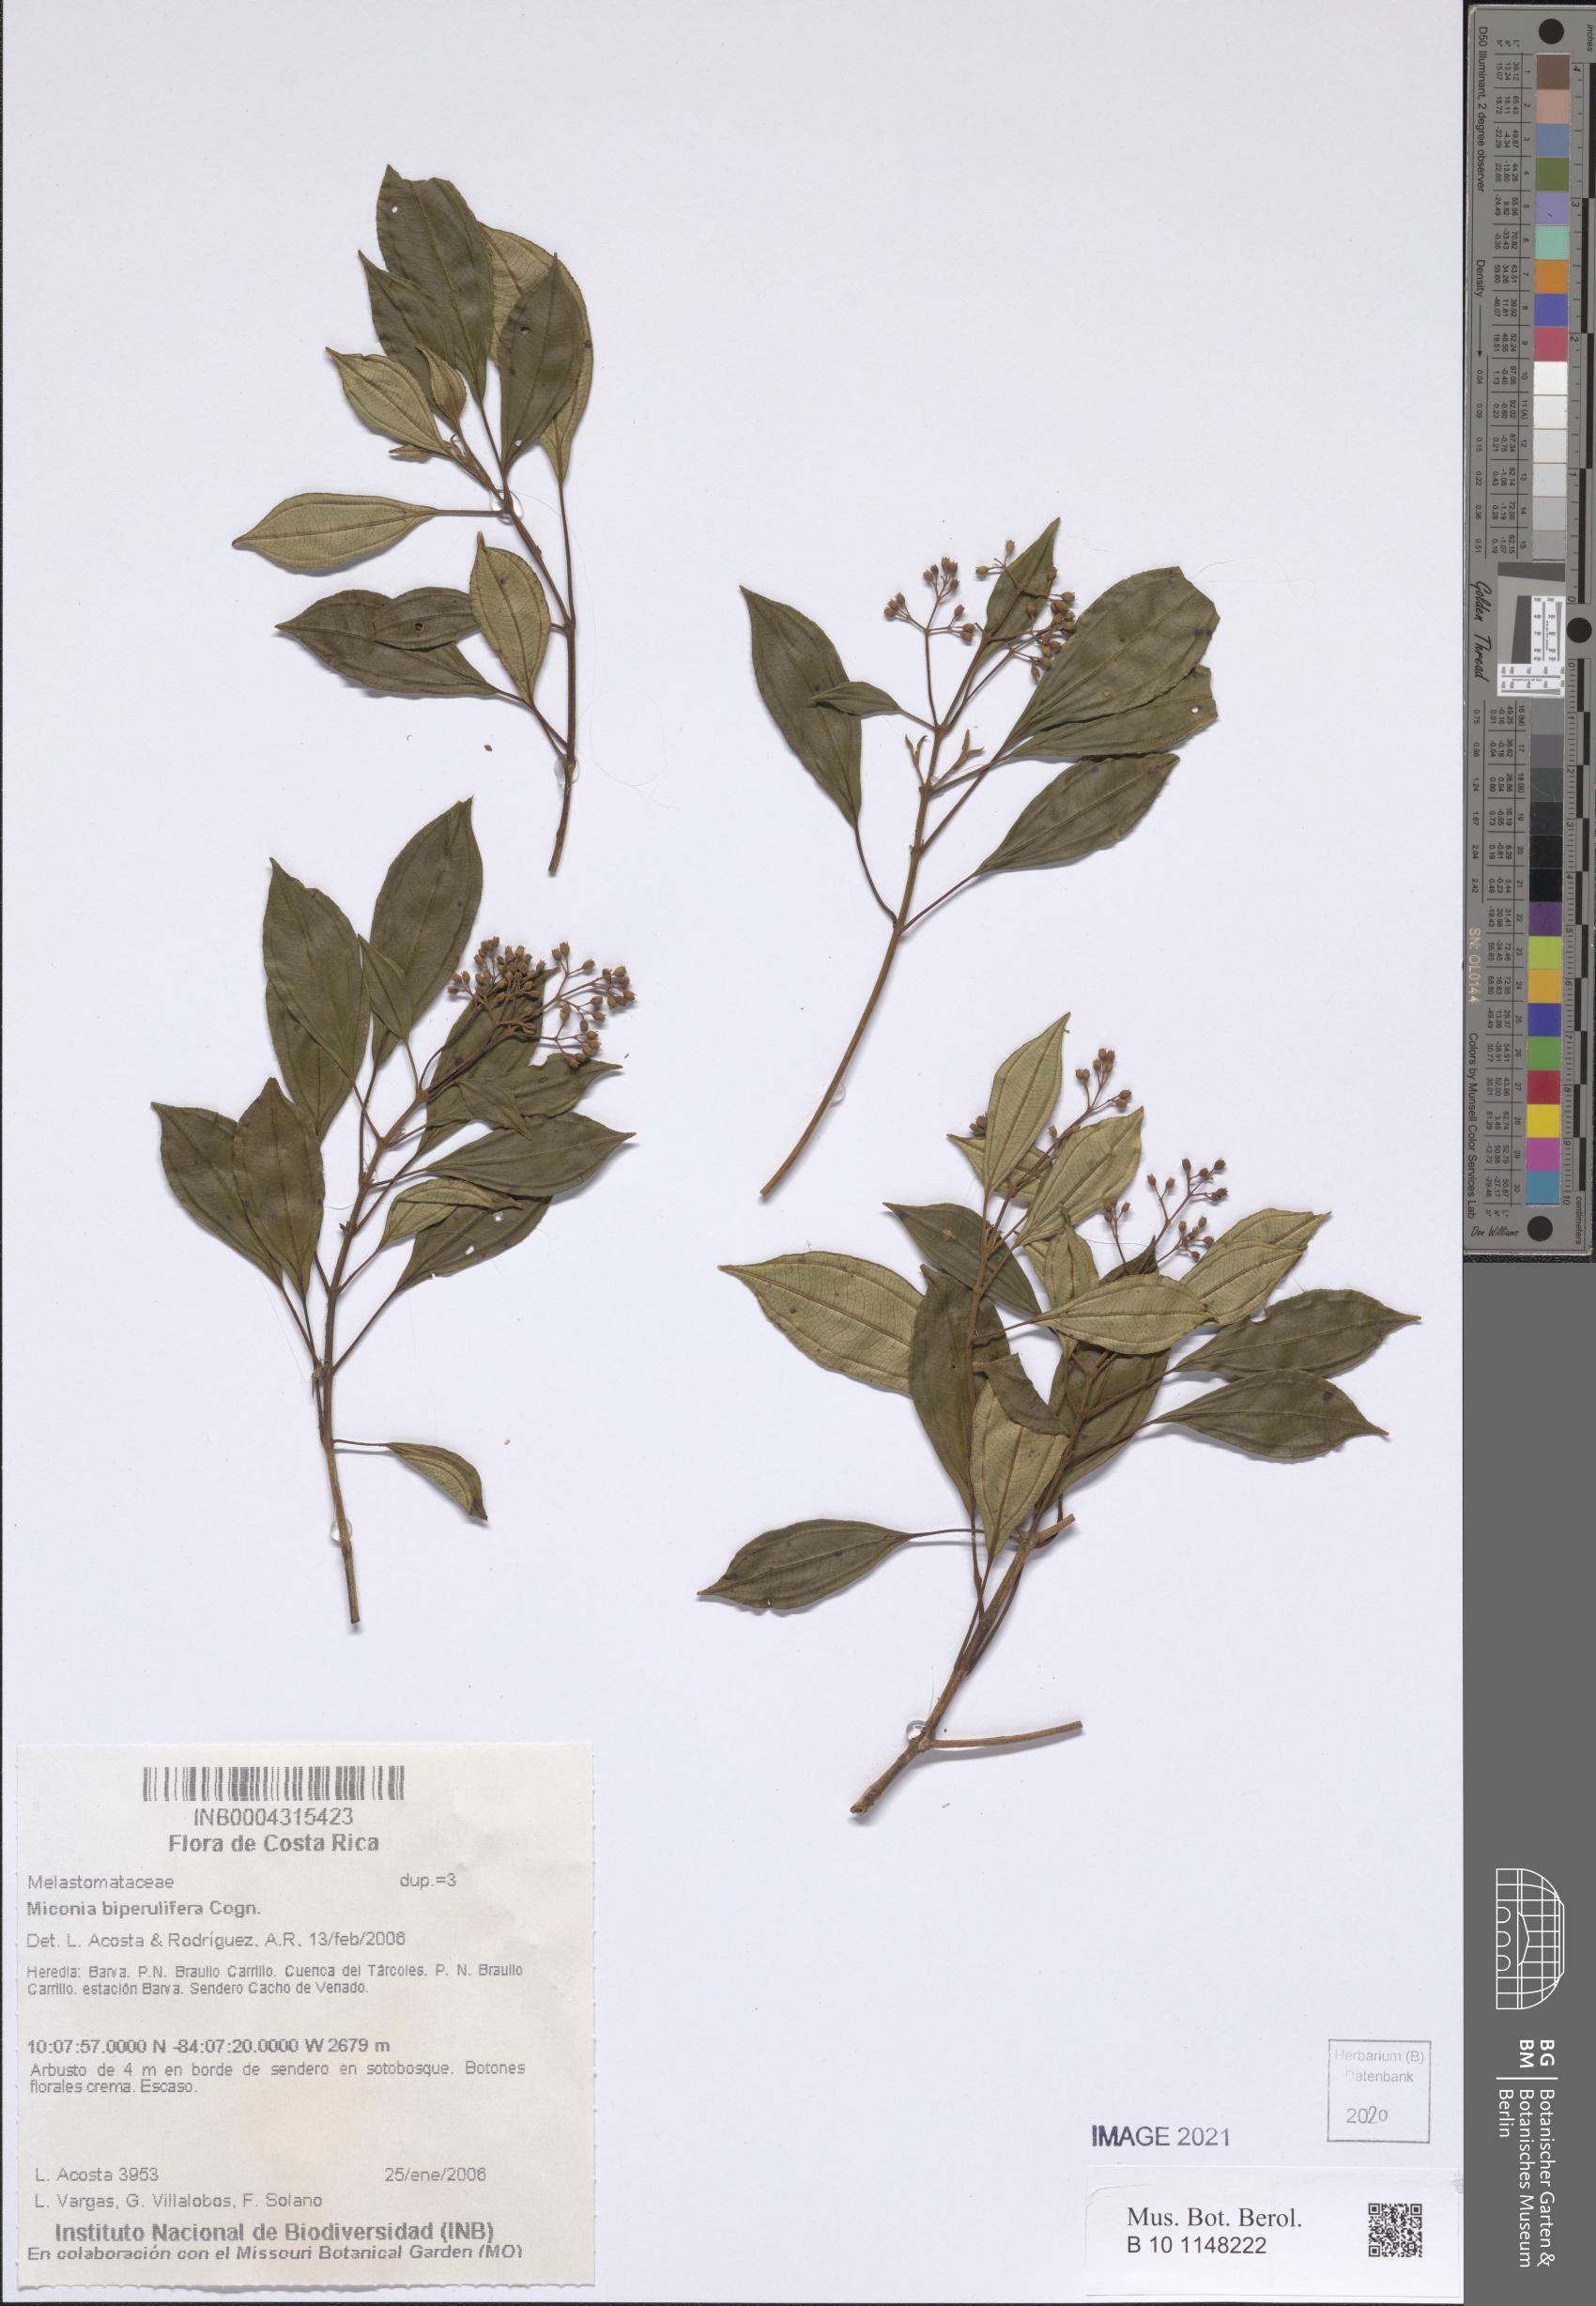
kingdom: Plantae
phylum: Tracheophyta
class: Magnoliopsida
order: Myrtales
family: Melastomataceae
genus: Miconia
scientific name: Miconia biperulifera
